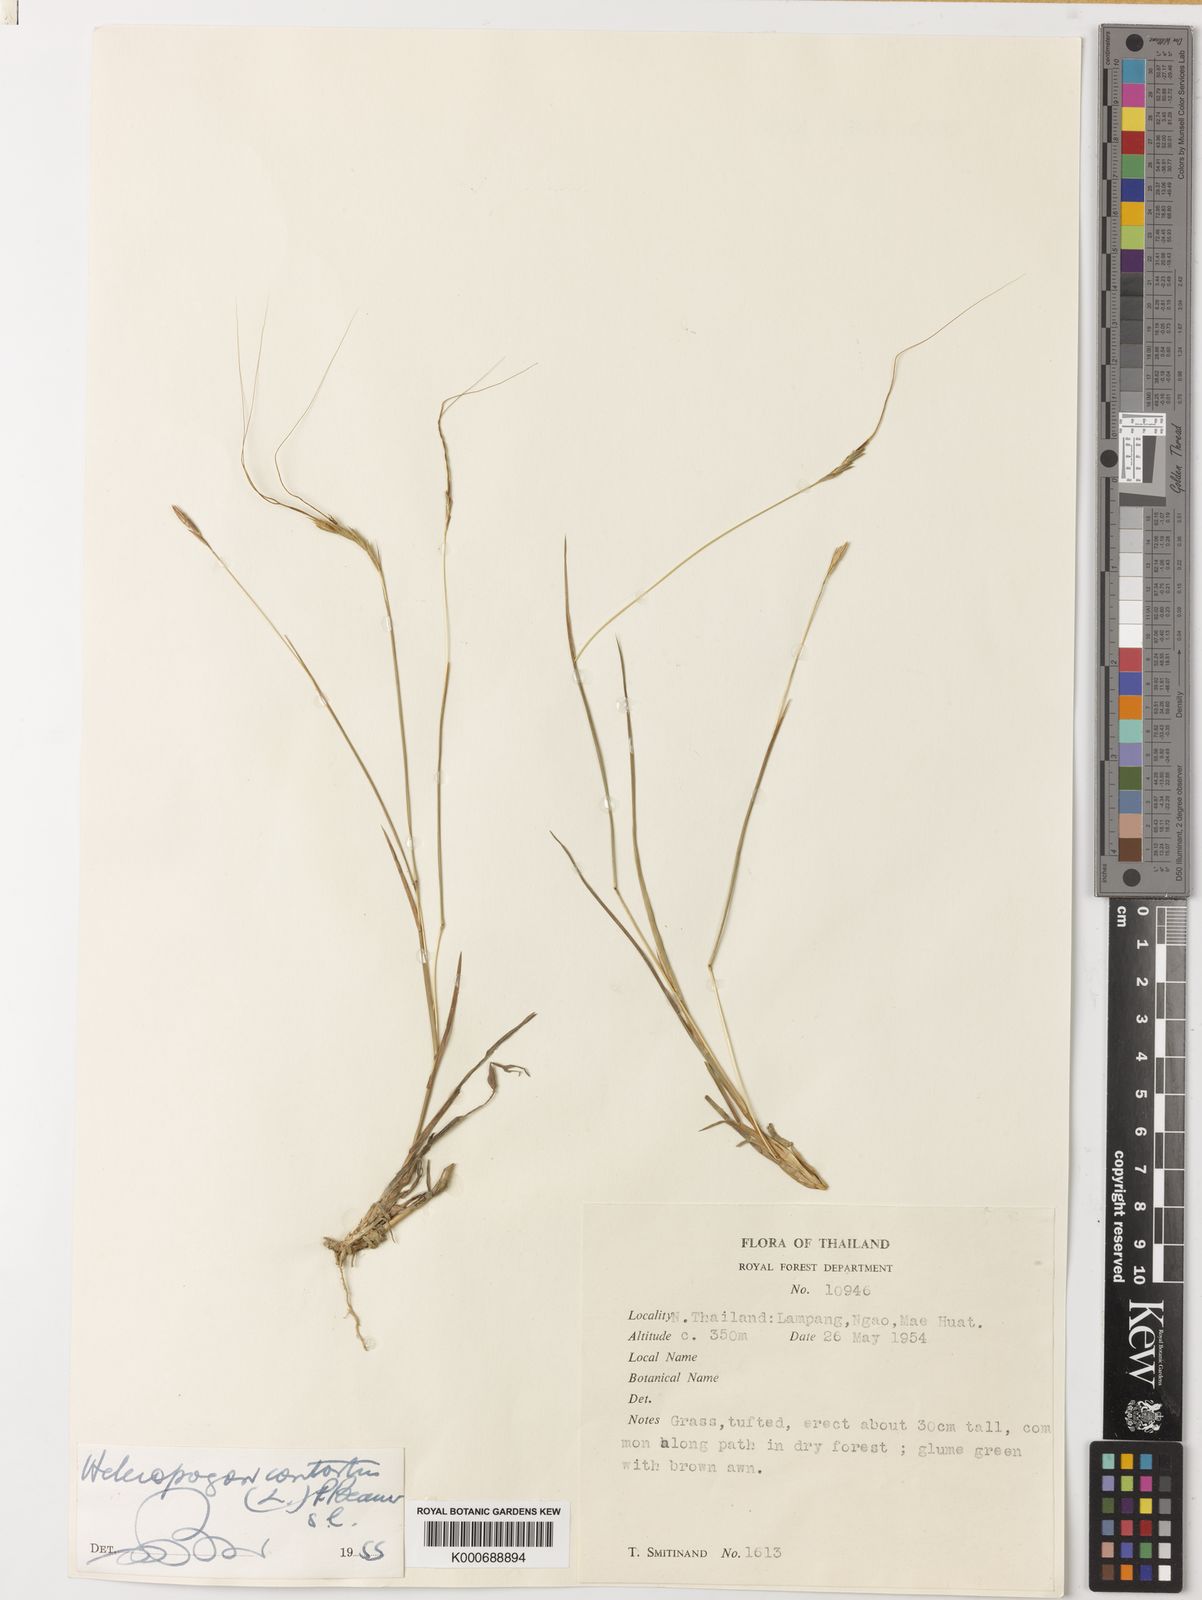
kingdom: Plantae
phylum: Tracheophyta
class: Liliopsida
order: Poales
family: Poaceae
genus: Heteropogon
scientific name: Heteropogon contortus
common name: Tanglehead
